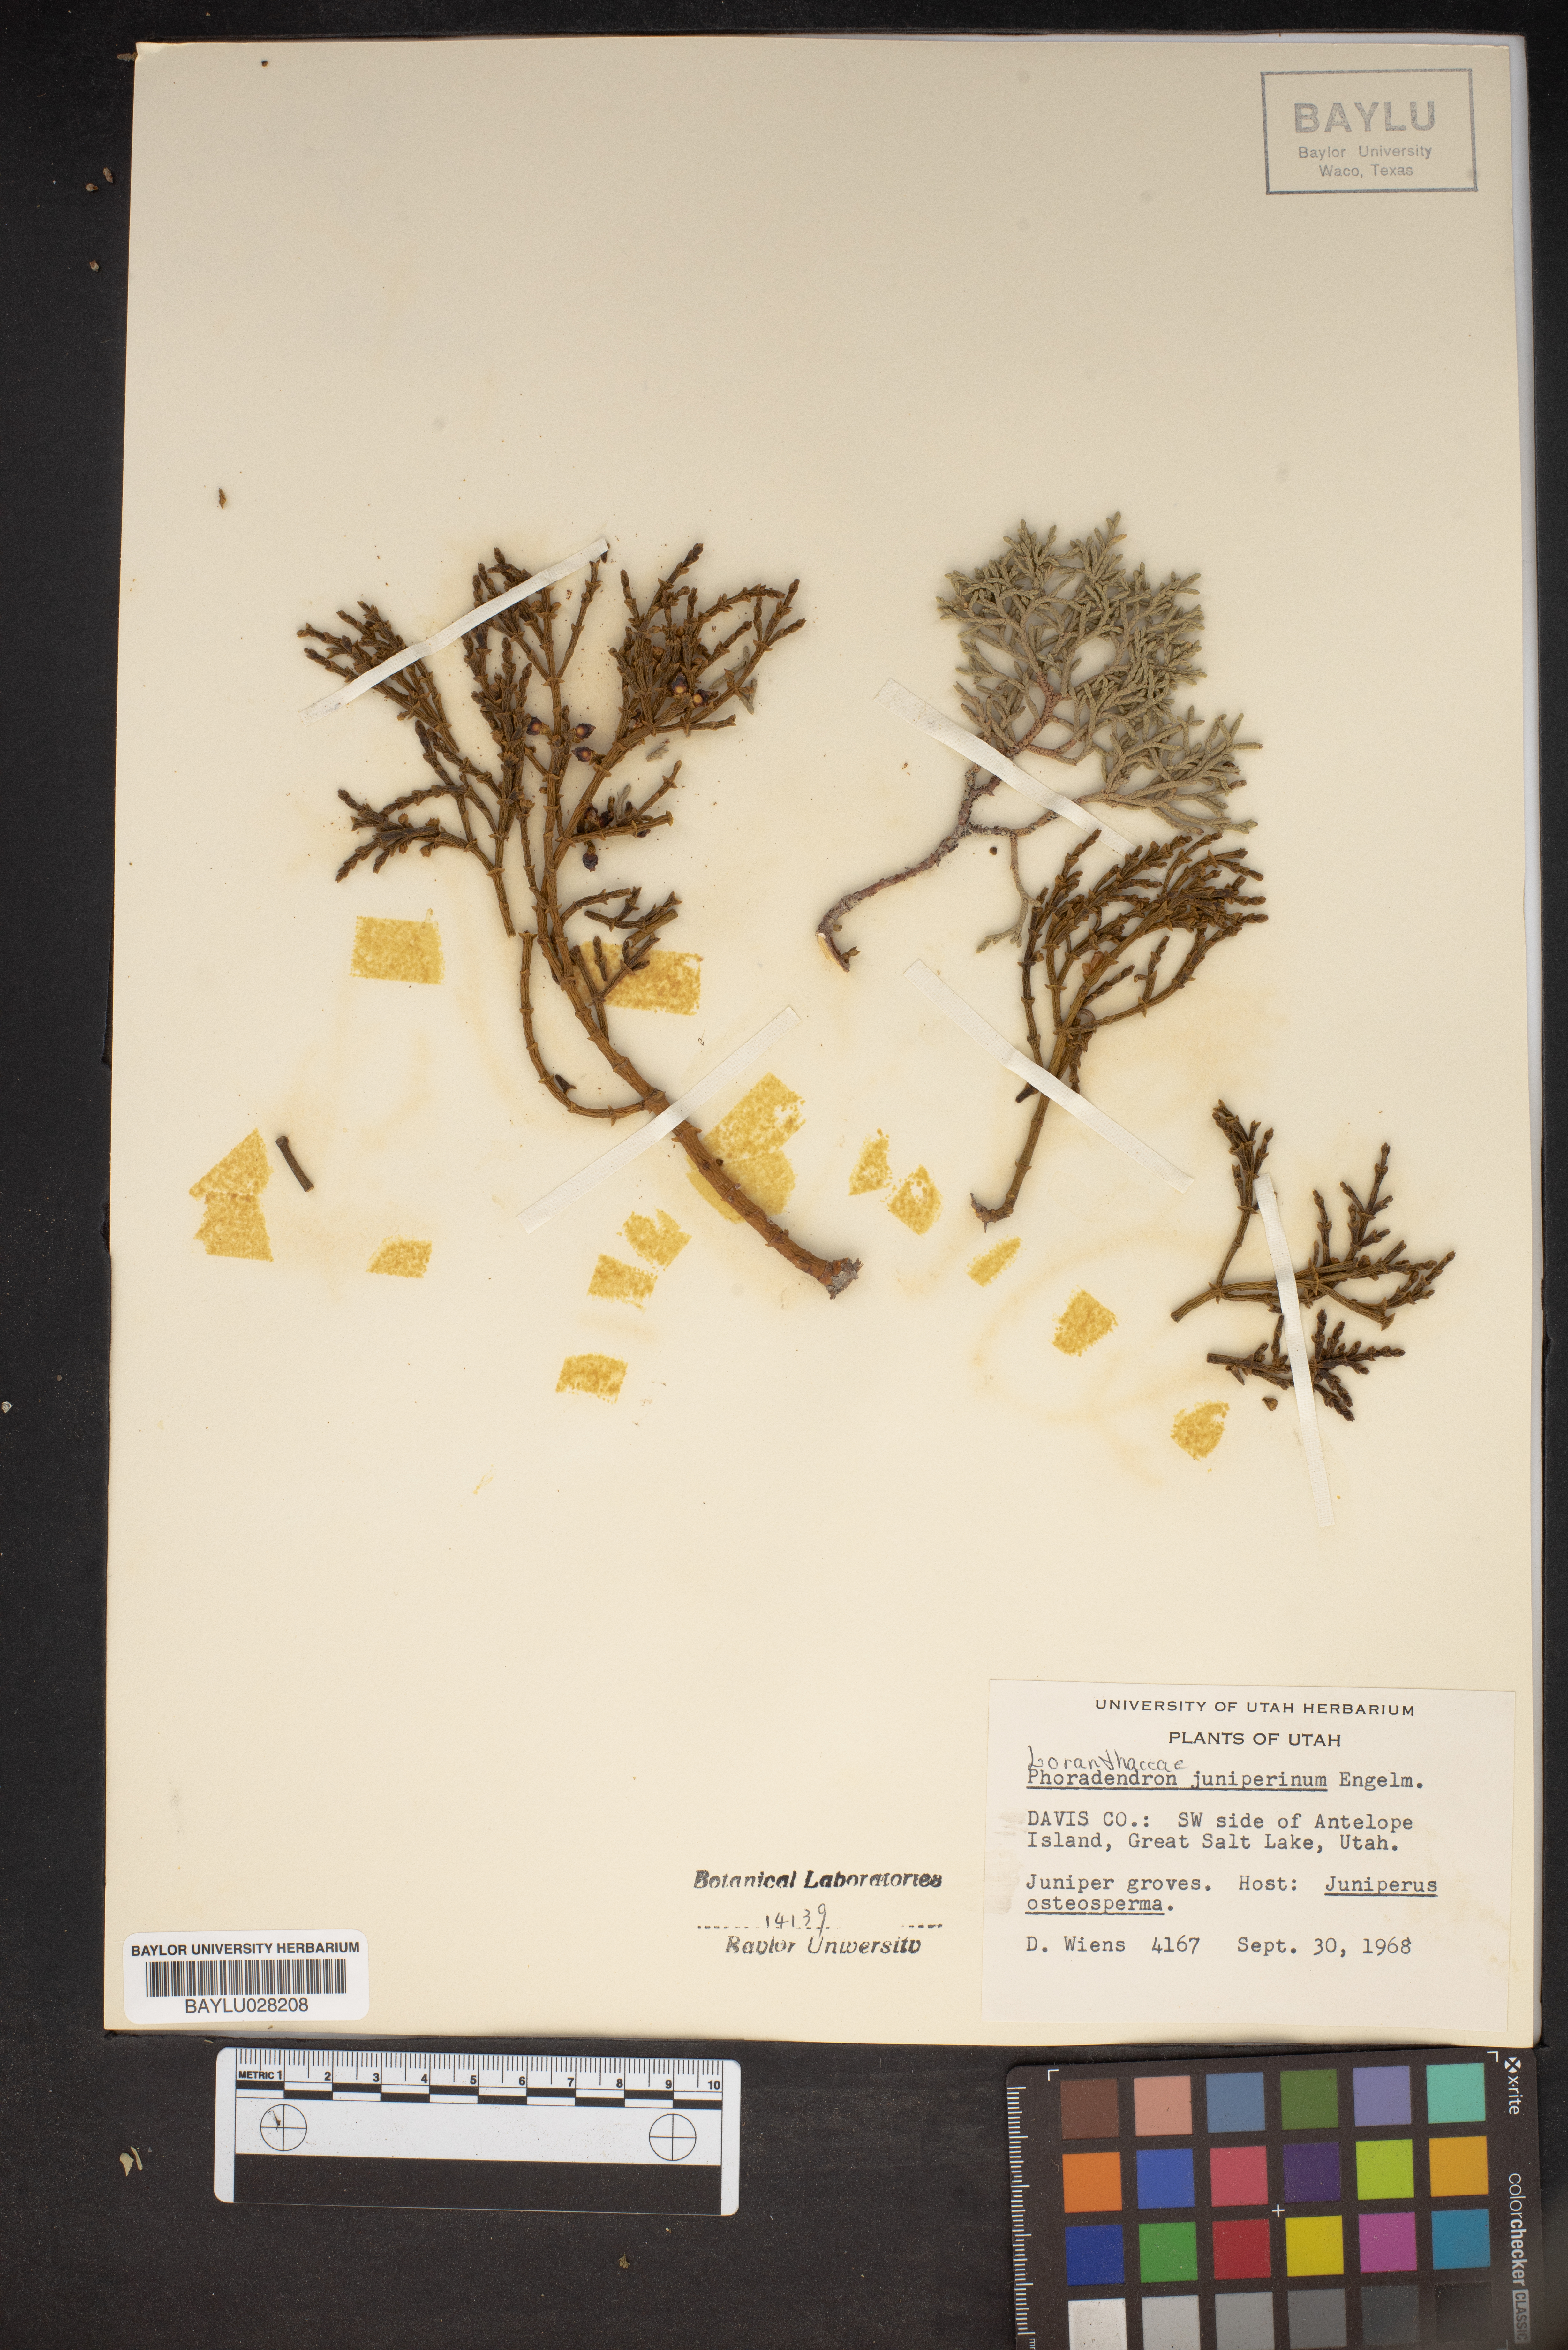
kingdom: Plantae
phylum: Tracheophyta
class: Magnoliopsida
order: Santalales
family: Viscaceae
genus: Phoradendron
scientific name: Phoradendron juniperinum
